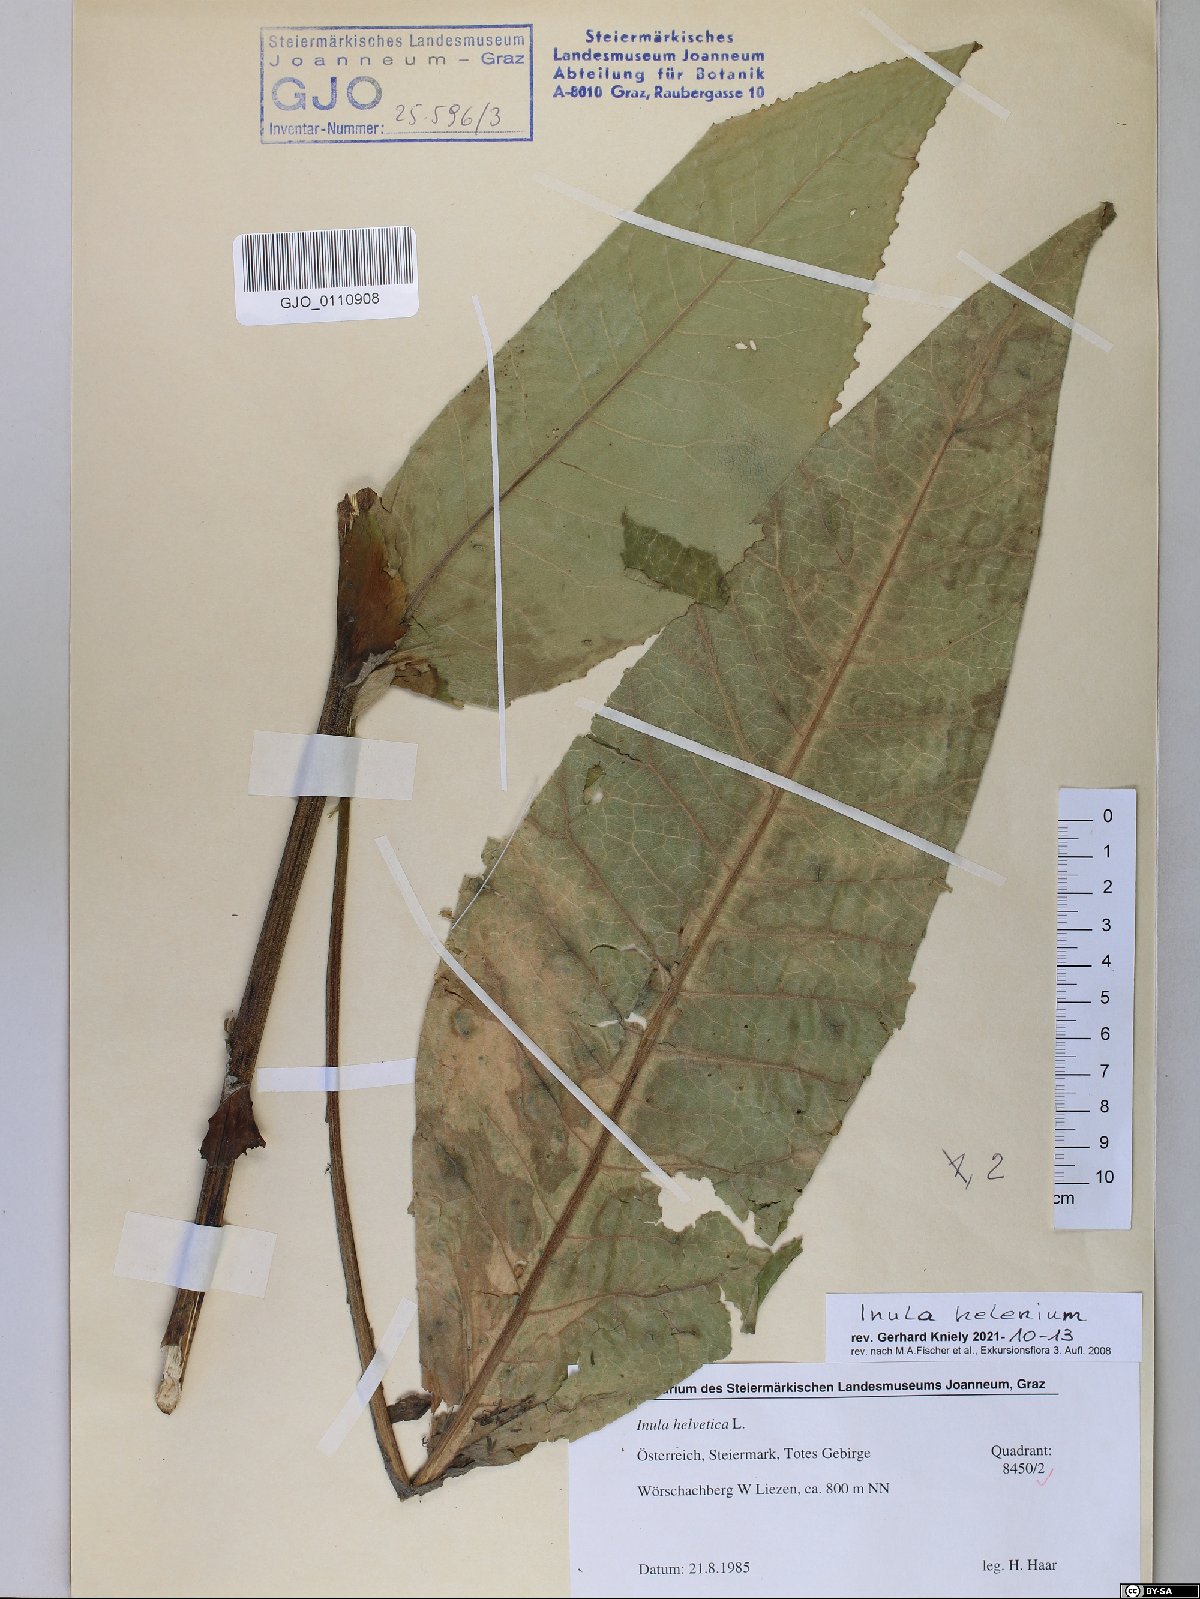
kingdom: Plantae
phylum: Tracheophyta
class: Magnoliopsida
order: Asterales
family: Asteraceae
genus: Inula
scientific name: Inula helenium
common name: Elecampane
